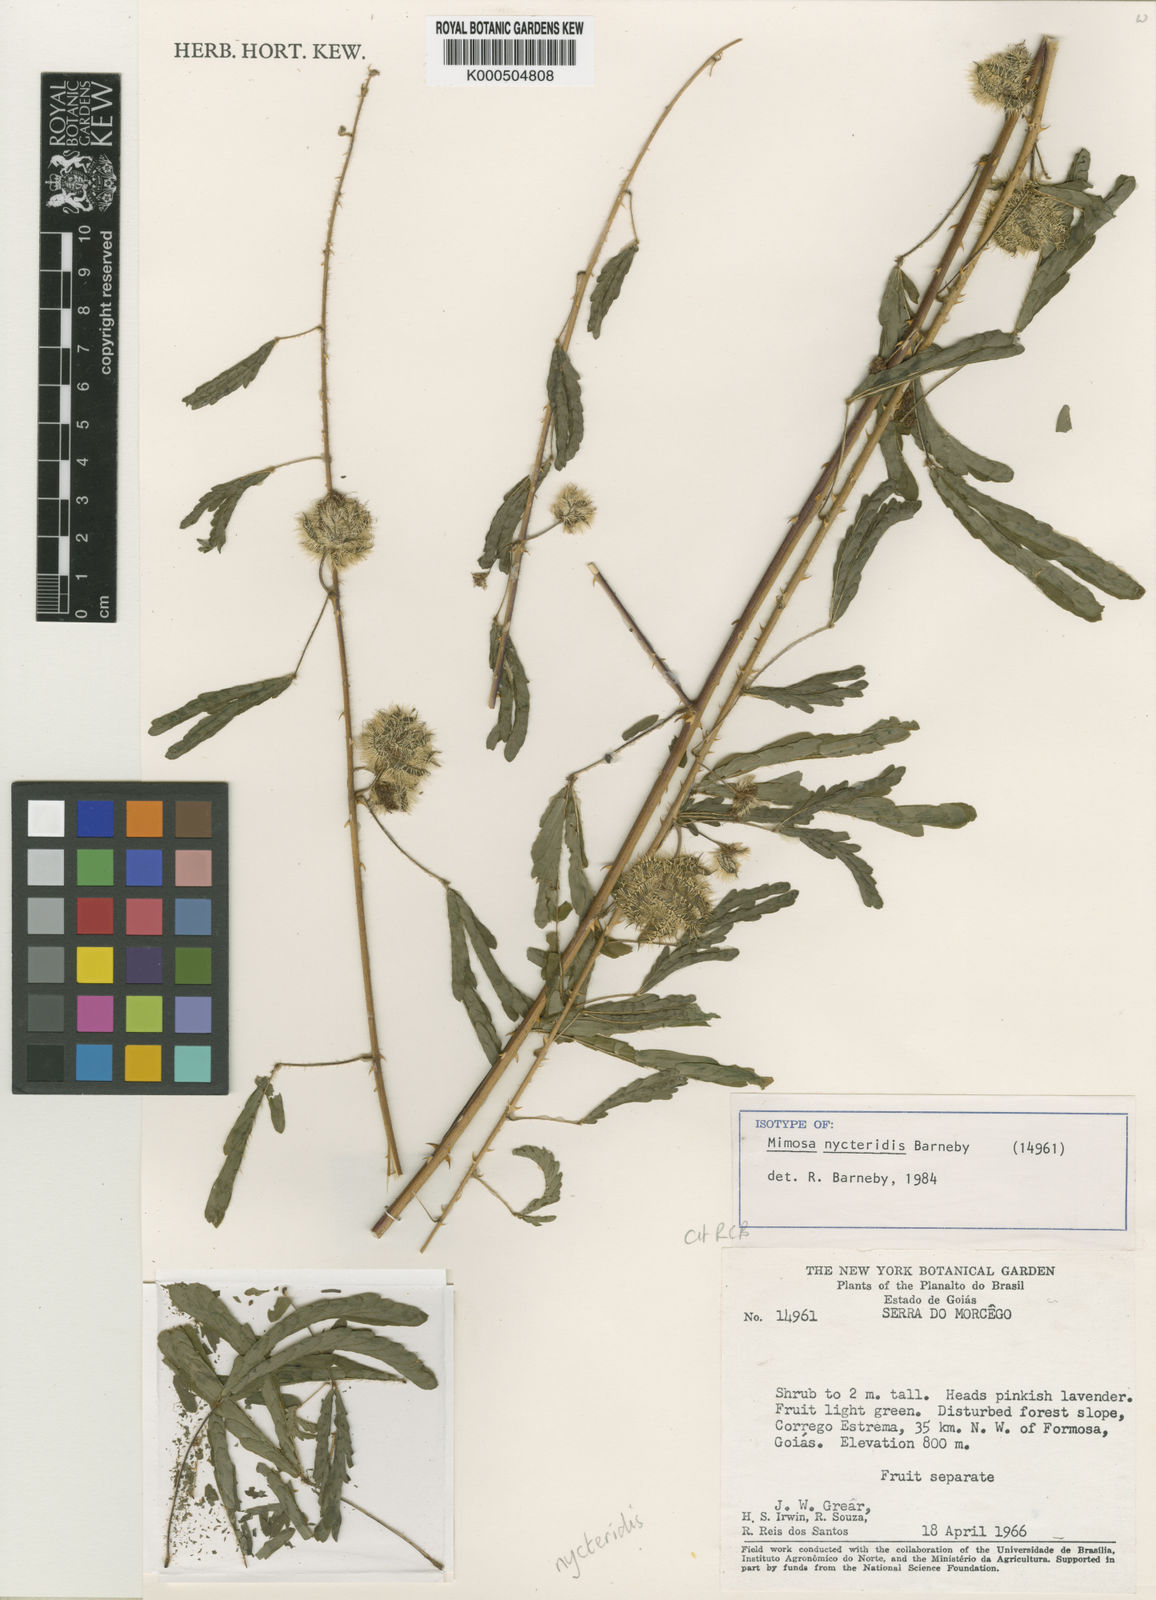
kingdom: Plantae
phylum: Tracheophyta
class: Magnoliopsida
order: Fabales
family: Fabaceae
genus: Mimosa
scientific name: Mimosa nycteridis
